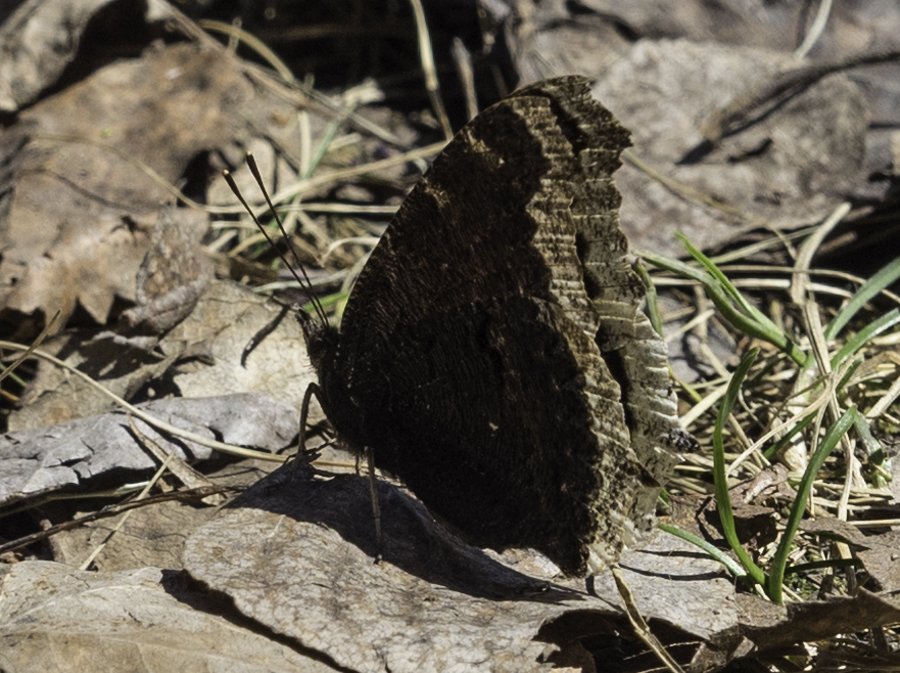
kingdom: Animalia
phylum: Arthropoda
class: Insecta
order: Lepidoptera
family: Nymphalidae
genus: Nymphalis
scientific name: Nymphalis antiopa
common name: Mourning Cloak
